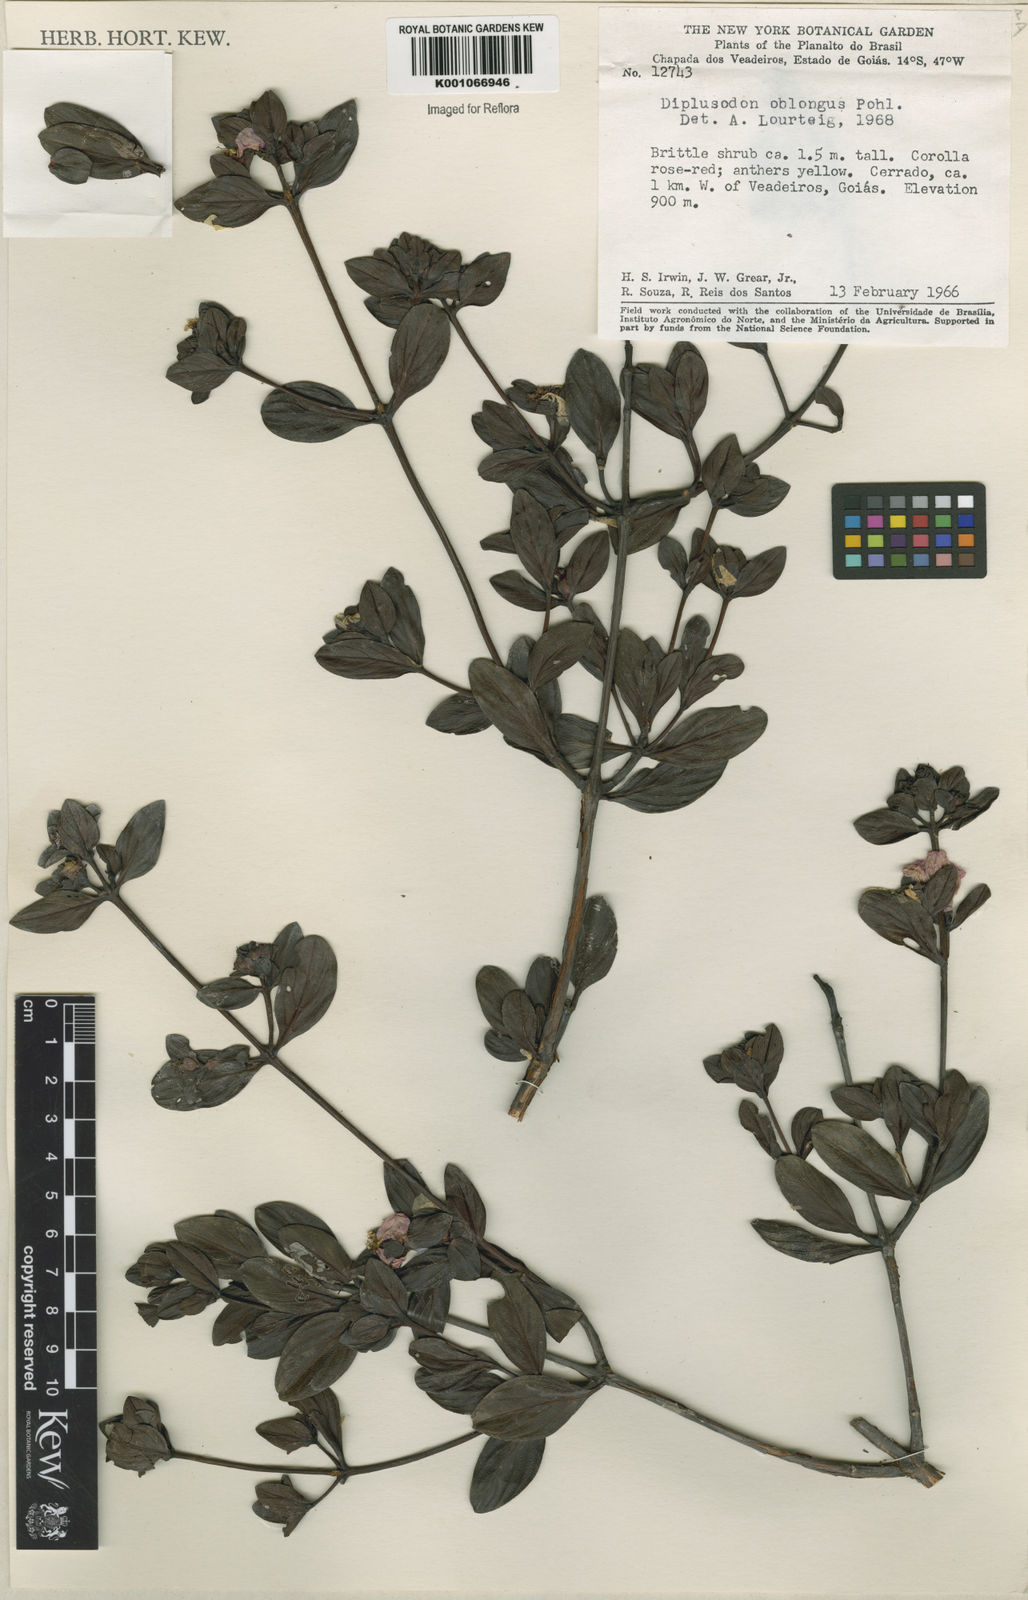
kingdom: Plantae
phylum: Tracheophyta
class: Magnoliopsida
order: Myrtales
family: Lythraceae
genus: Diplusodon
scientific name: Diplusodon oblongus
